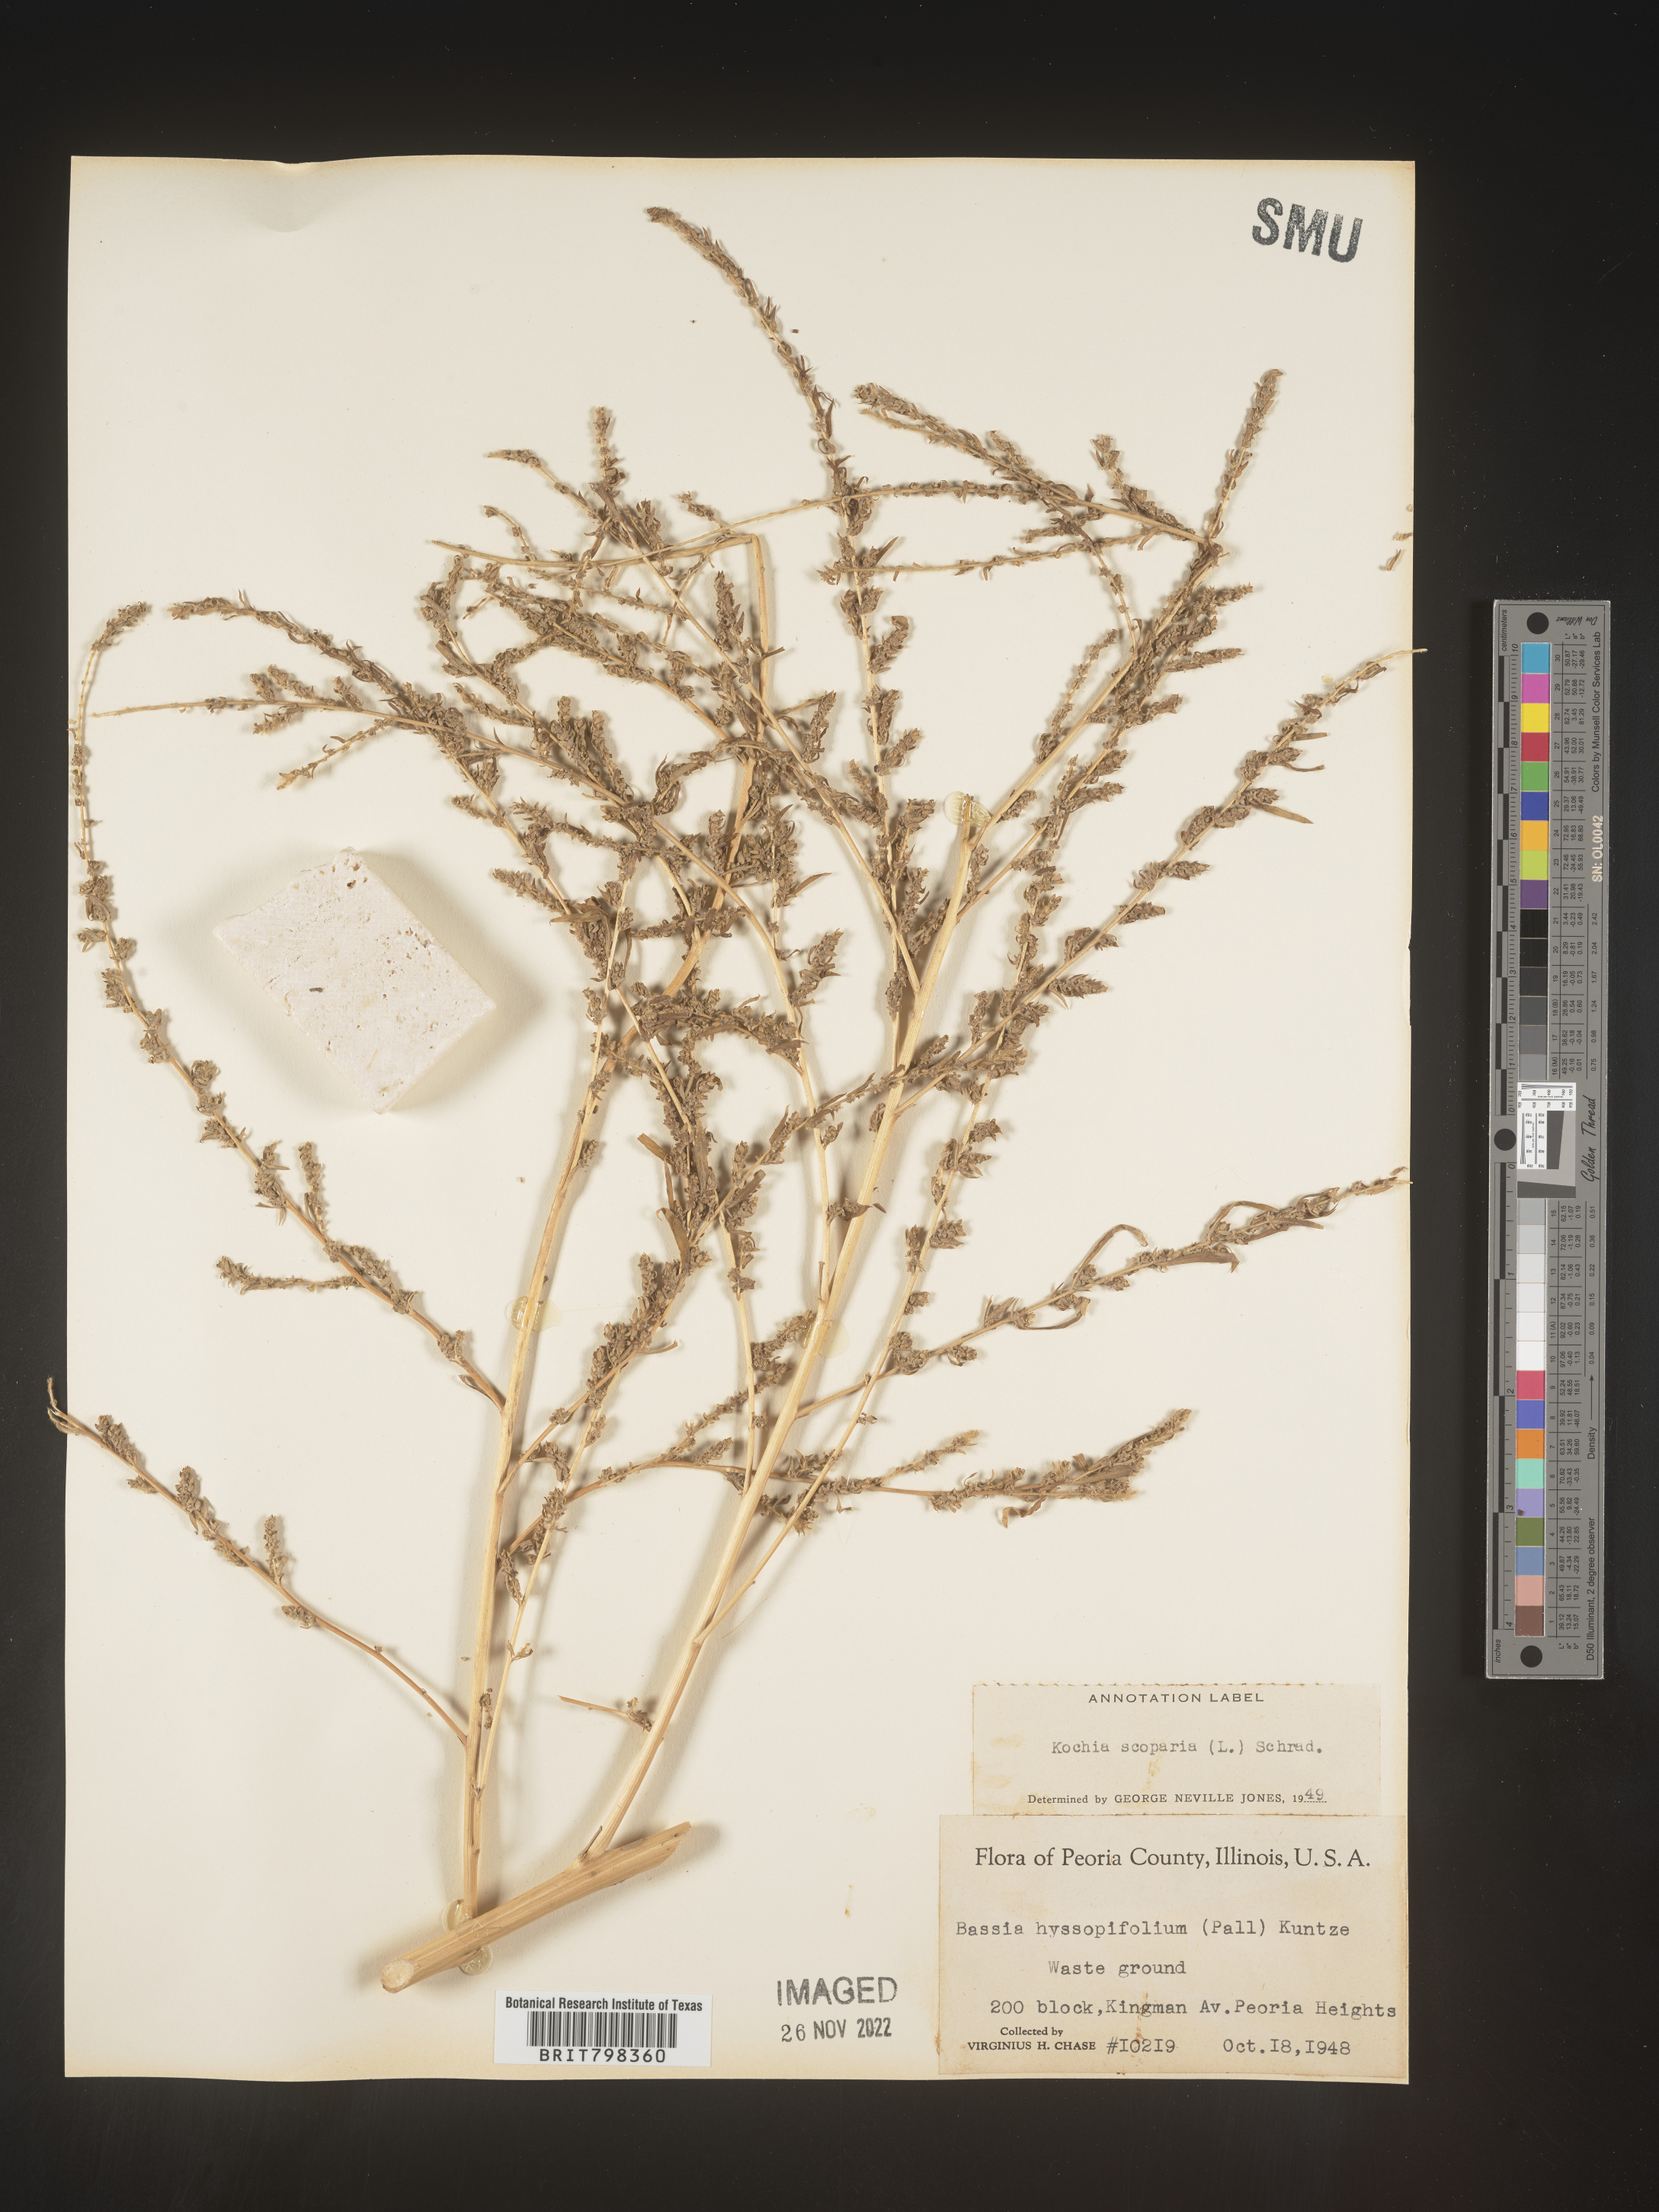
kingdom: Plantae
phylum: Tracheophyta
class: Magnoliopsida
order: Caryophyllales
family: Amaranthaceae
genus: Bassia
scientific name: Bassia
